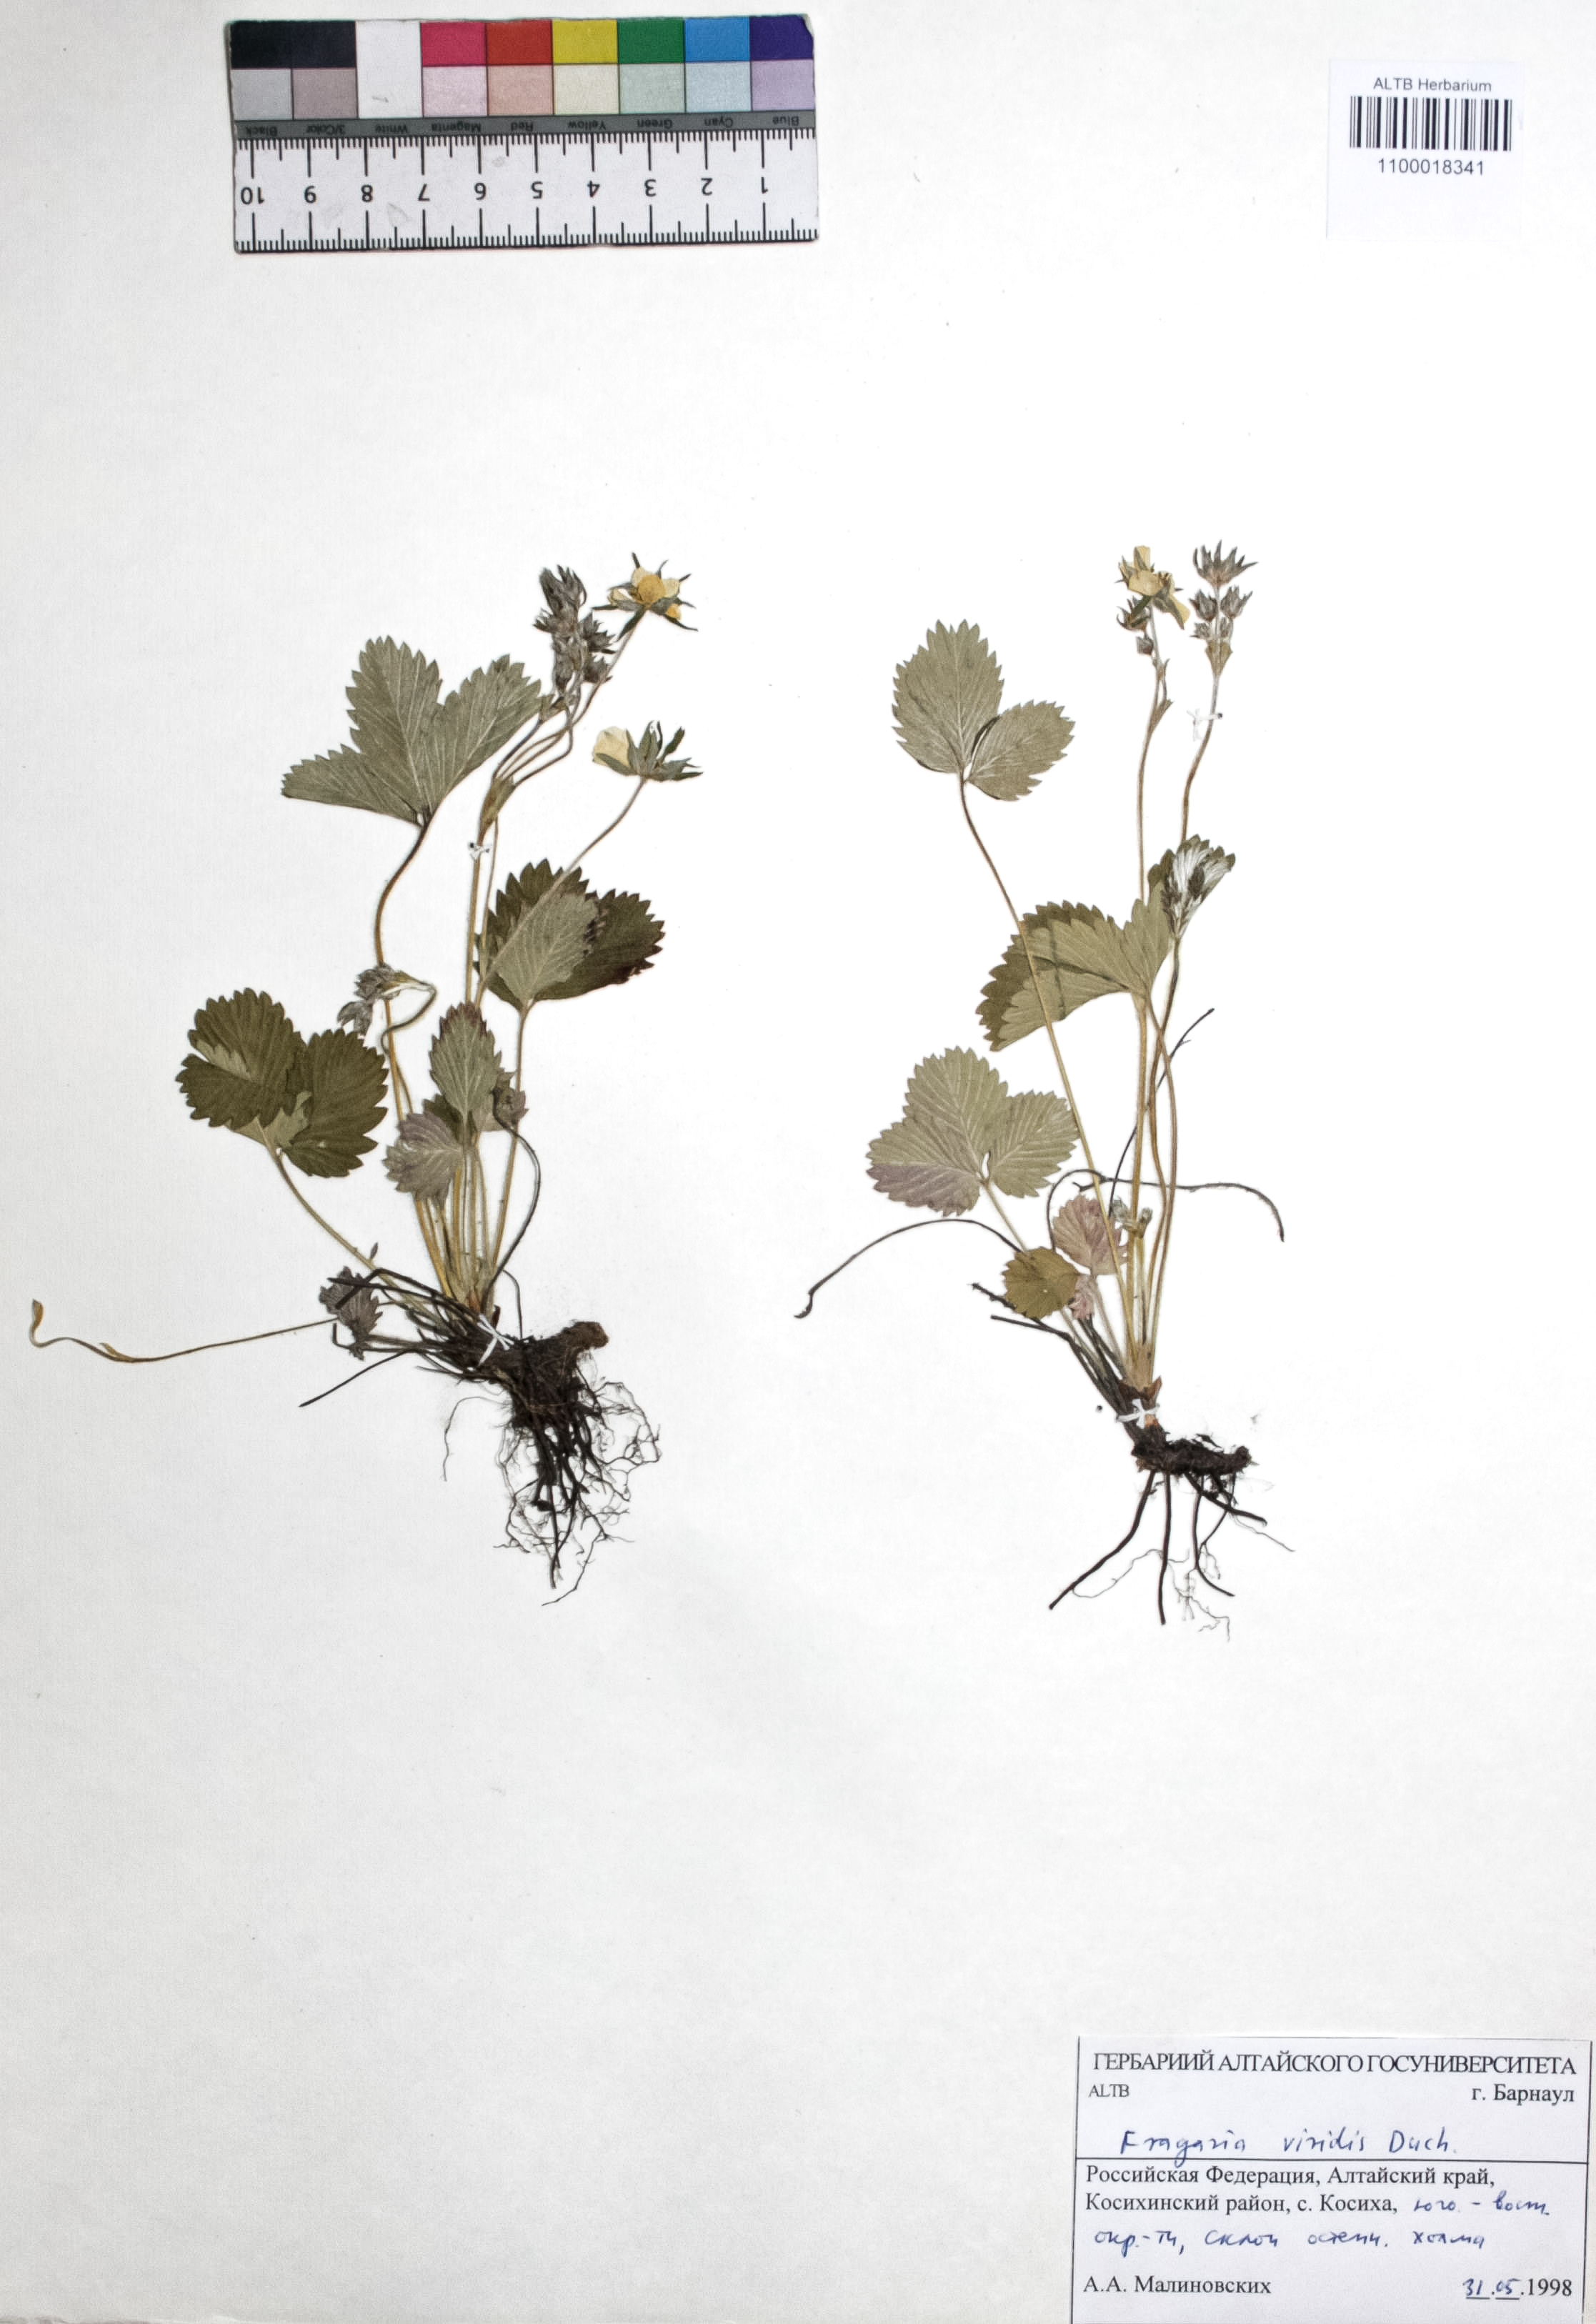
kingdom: Plantae
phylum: Tracheophyta
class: Magnoliopsida
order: Rosales
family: Rosaceae
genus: Fragaria
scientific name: Fragaria viridis
